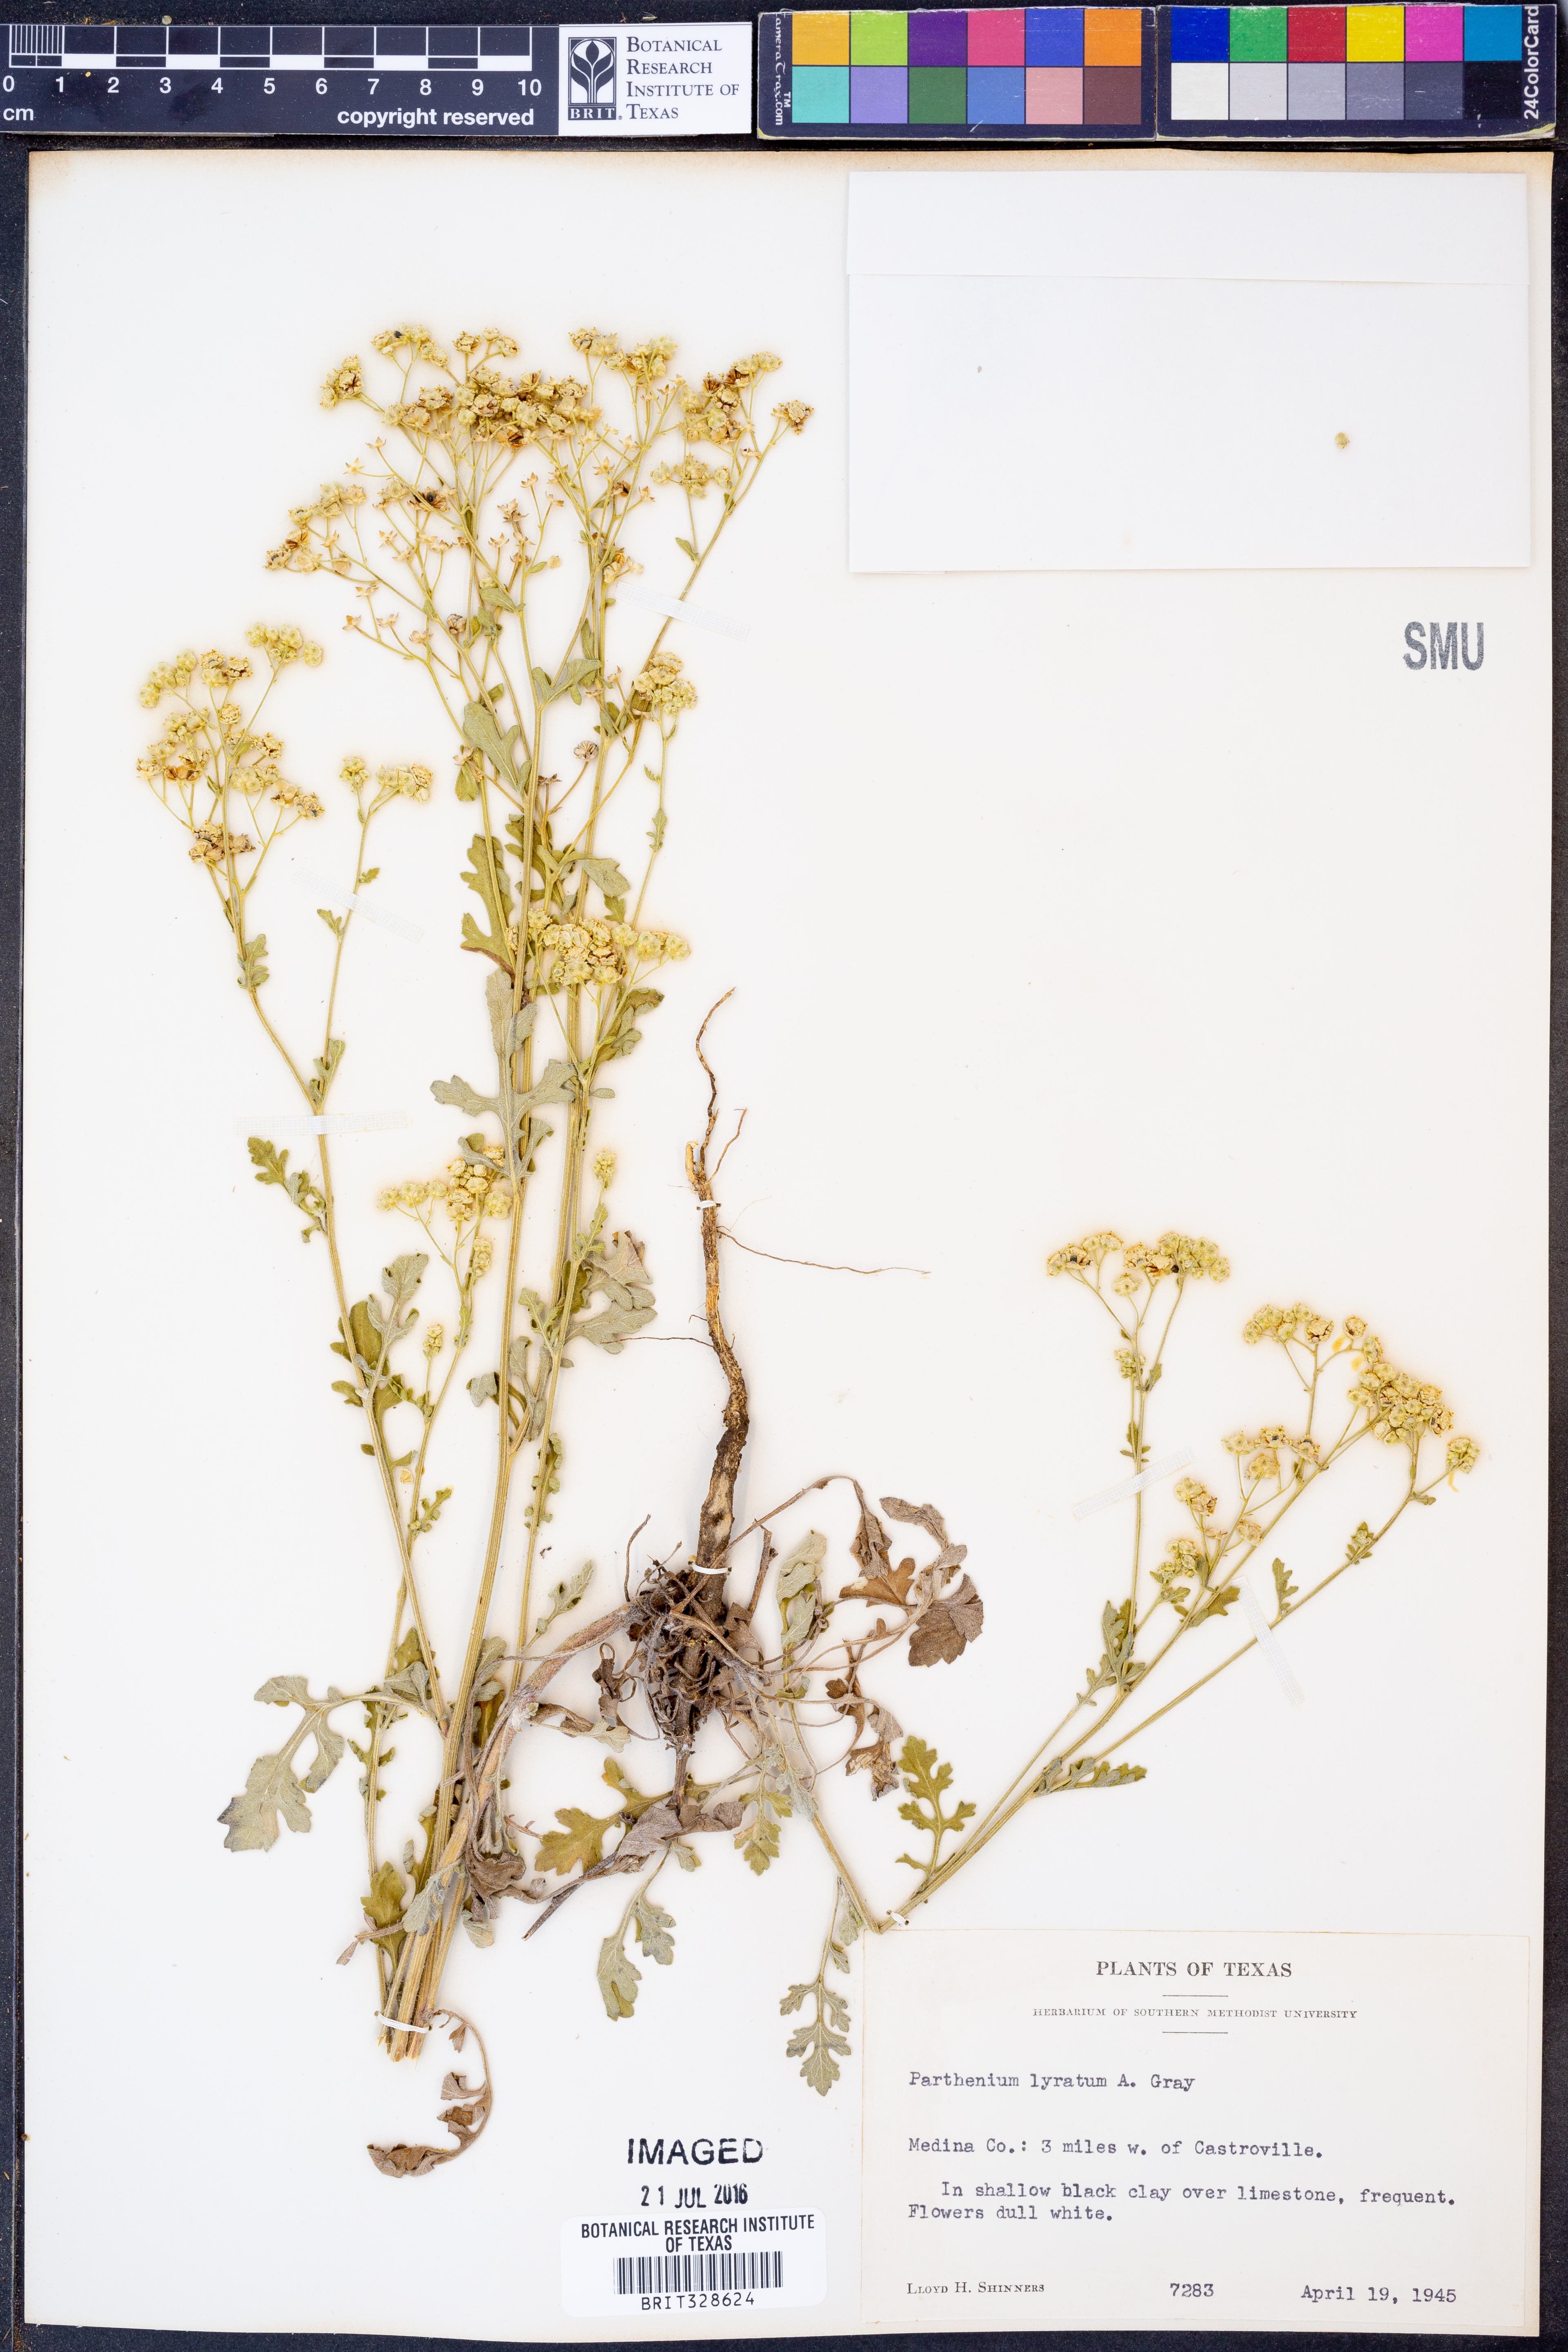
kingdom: Plantae
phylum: Tracheophyta
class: Magnoliopsida
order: Asterales
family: Asteraceae
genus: Parthenium
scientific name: Parthenium confertum
